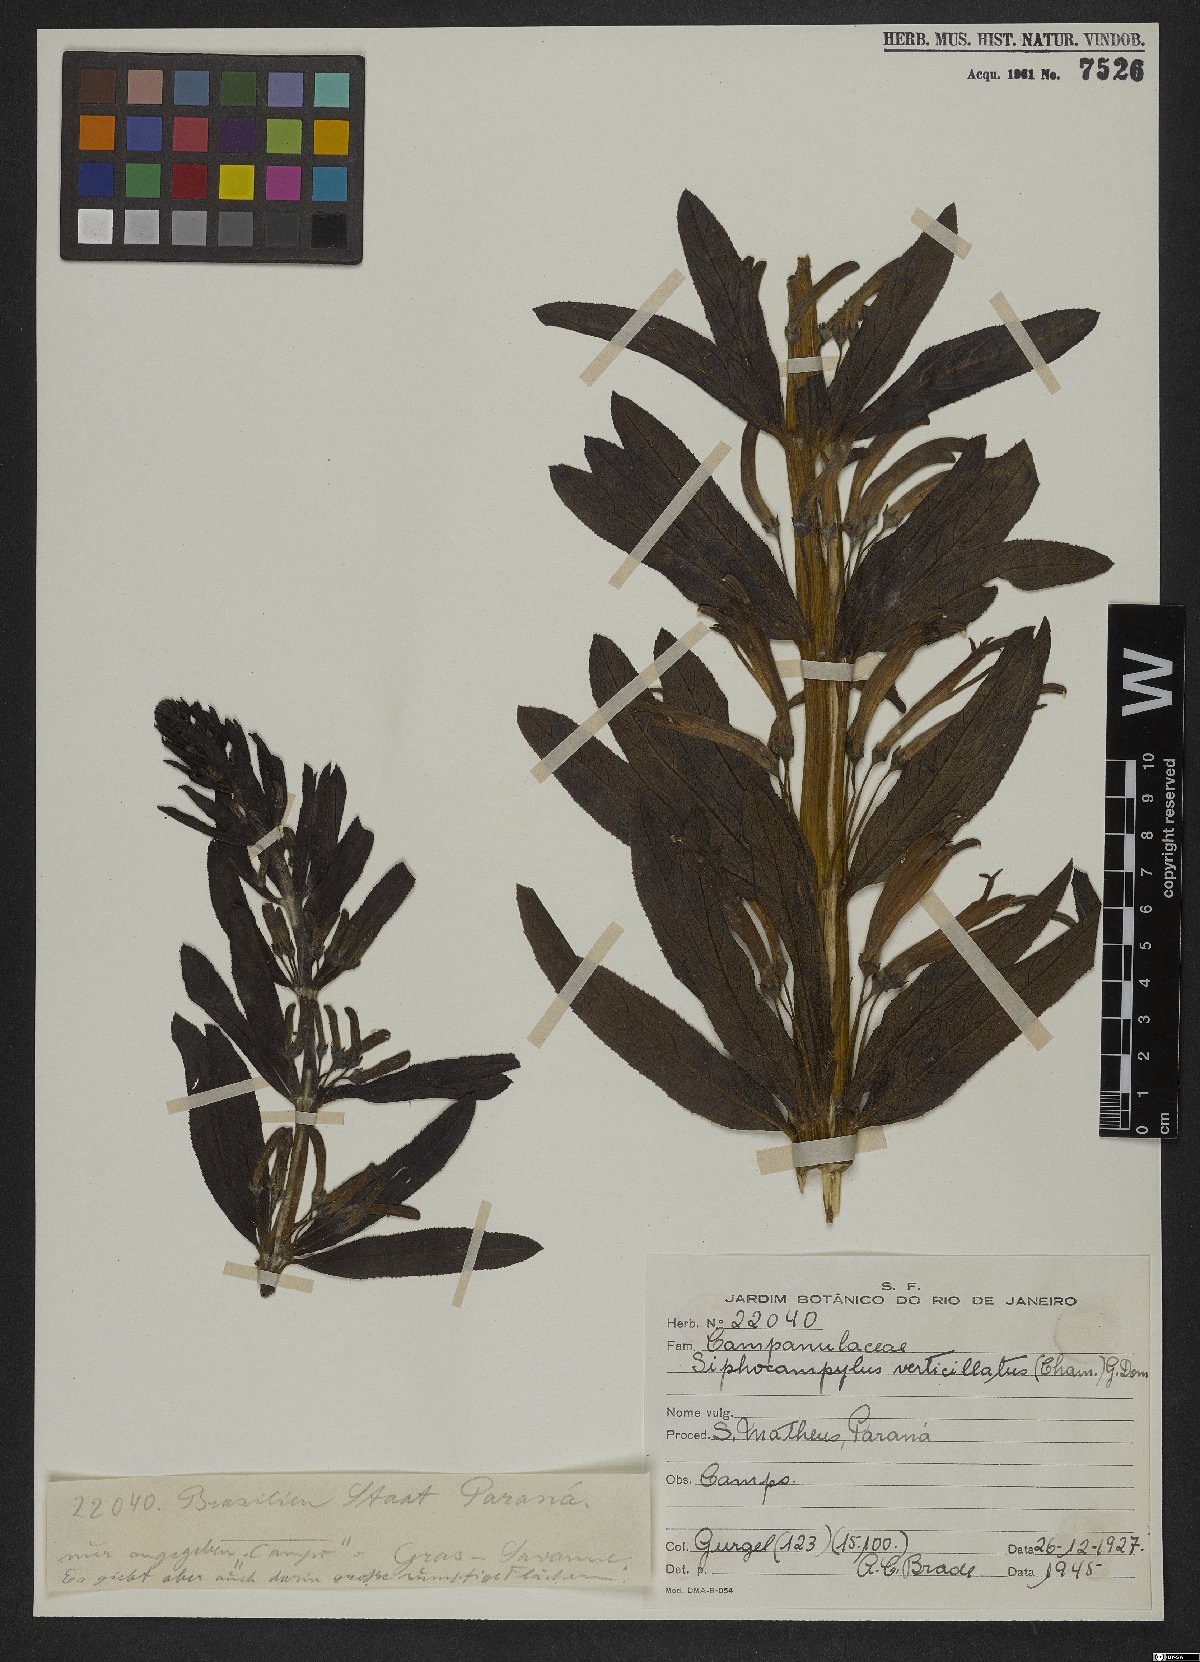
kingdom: Plantae
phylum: Tracheophyta
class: Magnoliopsida
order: Asterales
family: Campanulaceae
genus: Siphocampylus
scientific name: Siphocampylus verticillatus
